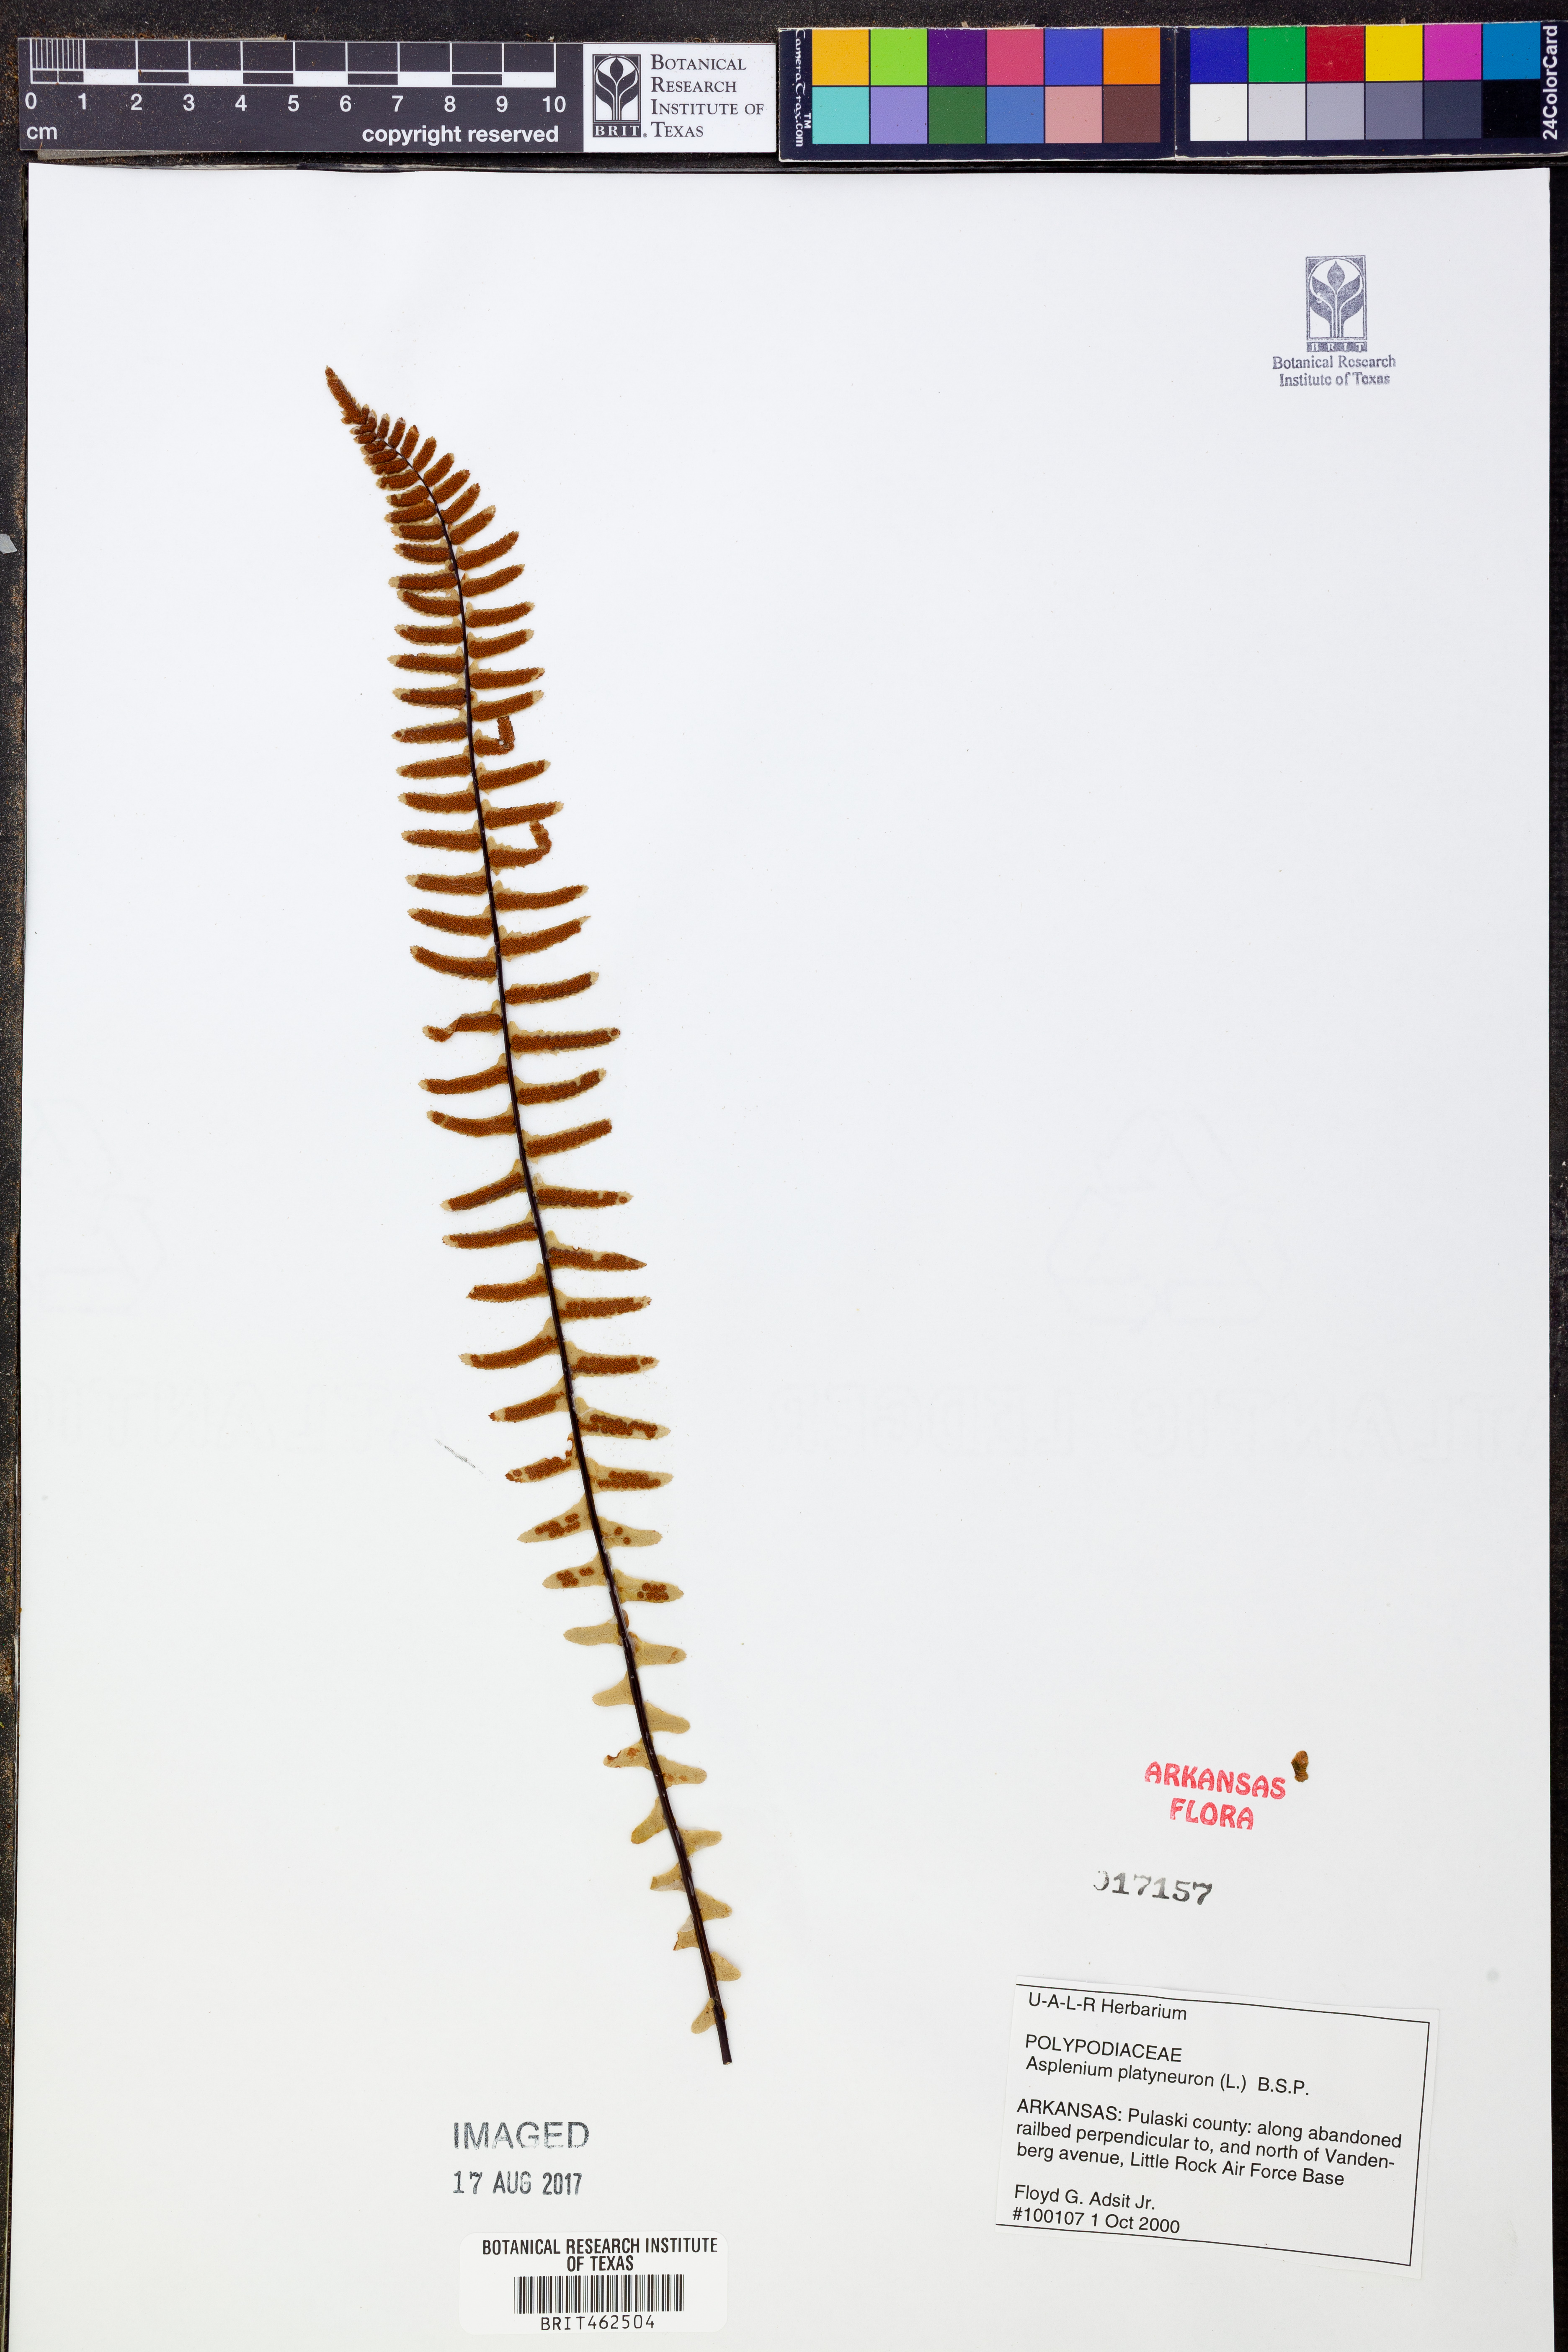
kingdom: Plantae
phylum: Tracheophyta
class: Polypodiopsida
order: Polypodiales
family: Aspleniaceae
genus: Asplenium
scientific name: Asplenium platyneuron
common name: Ebony spleenwort
